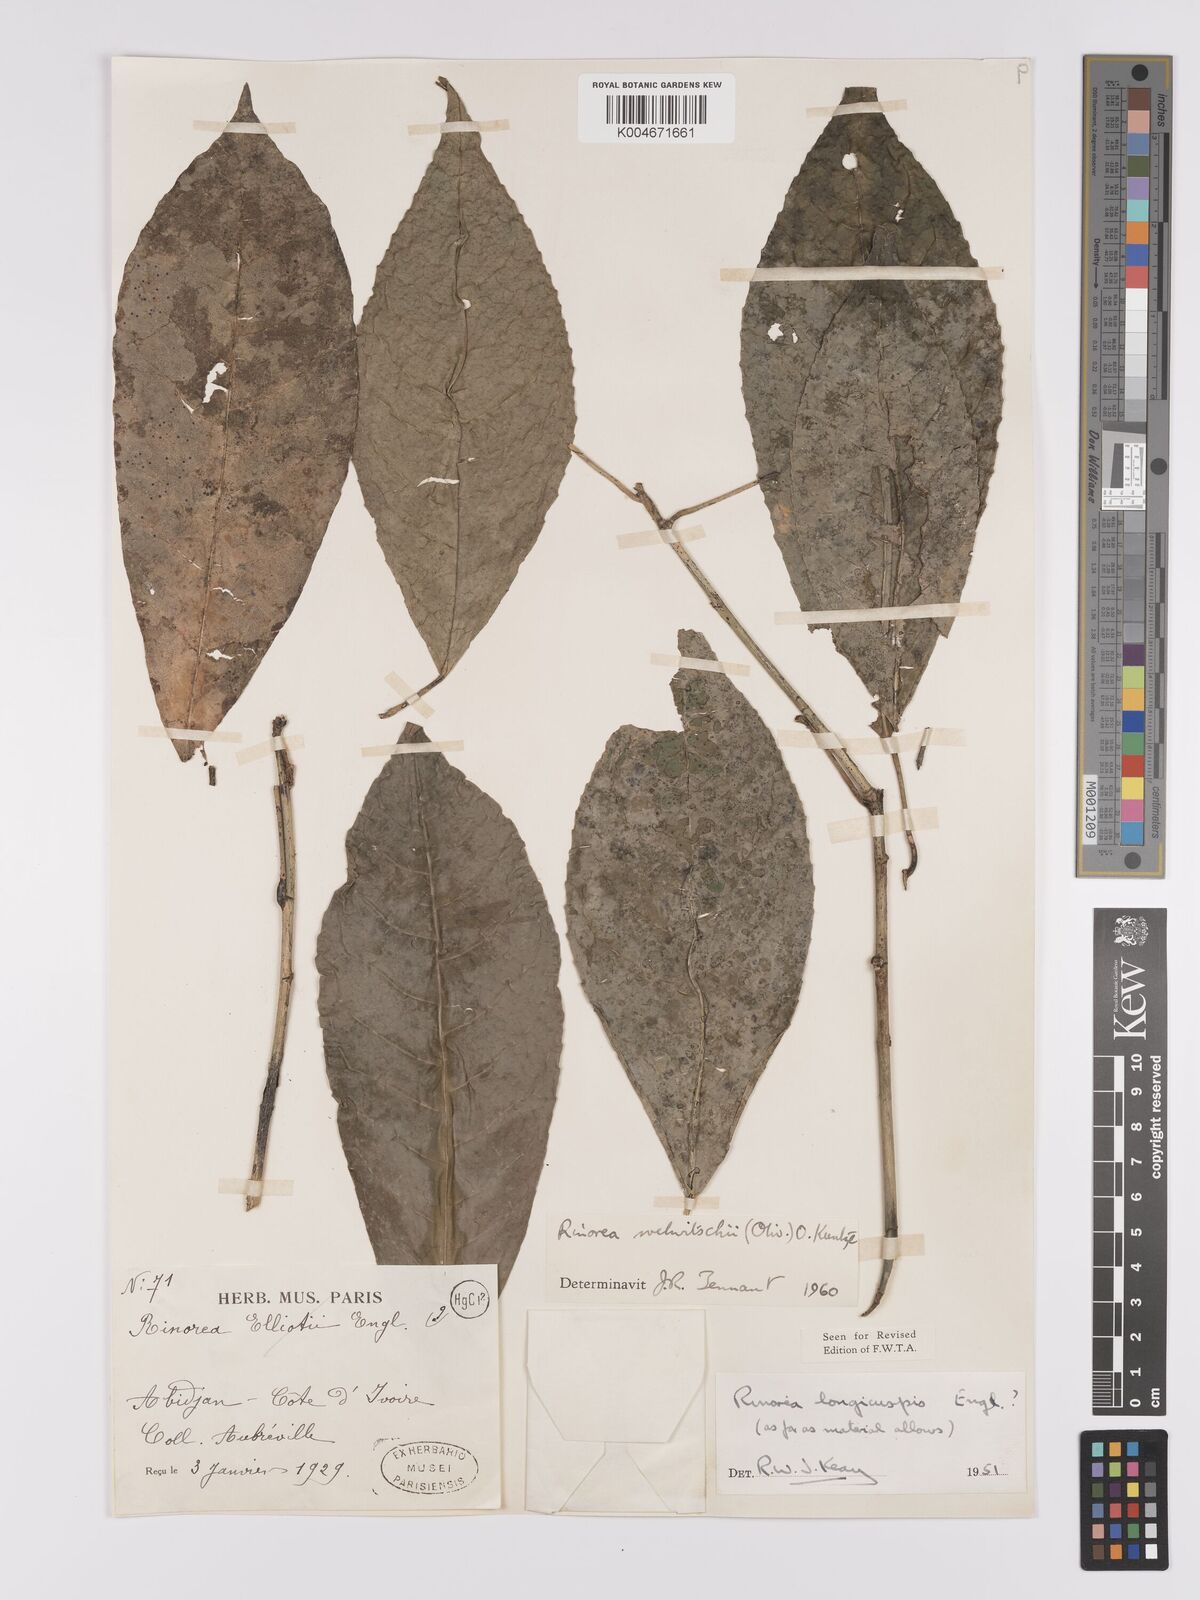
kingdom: Plantae
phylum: Tracheophyta
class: Magnoliopsida
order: Malpighiales
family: Violaceae
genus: Rinorea
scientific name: Rinorea welwitschii
